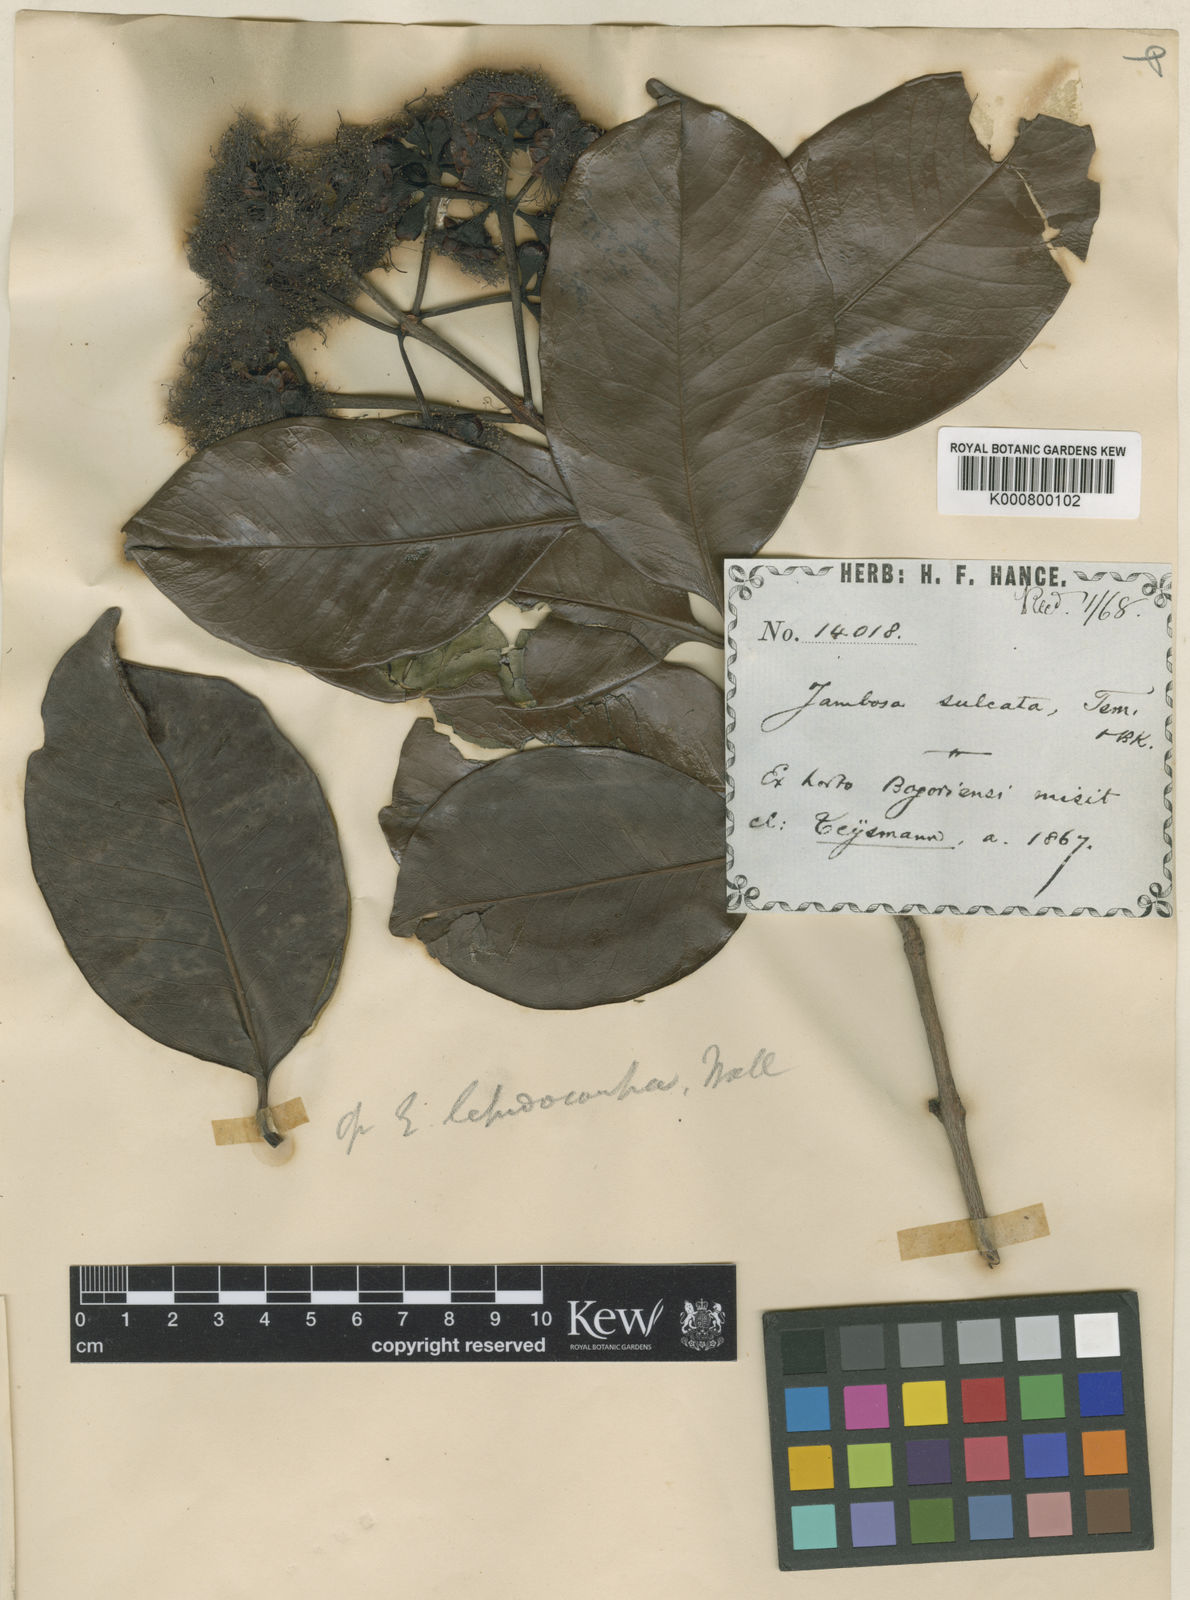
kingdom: Plantae
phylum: Tracheophyta
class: Magnoliopsida
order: Myrtales
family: Myrtaceae
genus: Syzygium
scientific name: Syzygium urceolatum
